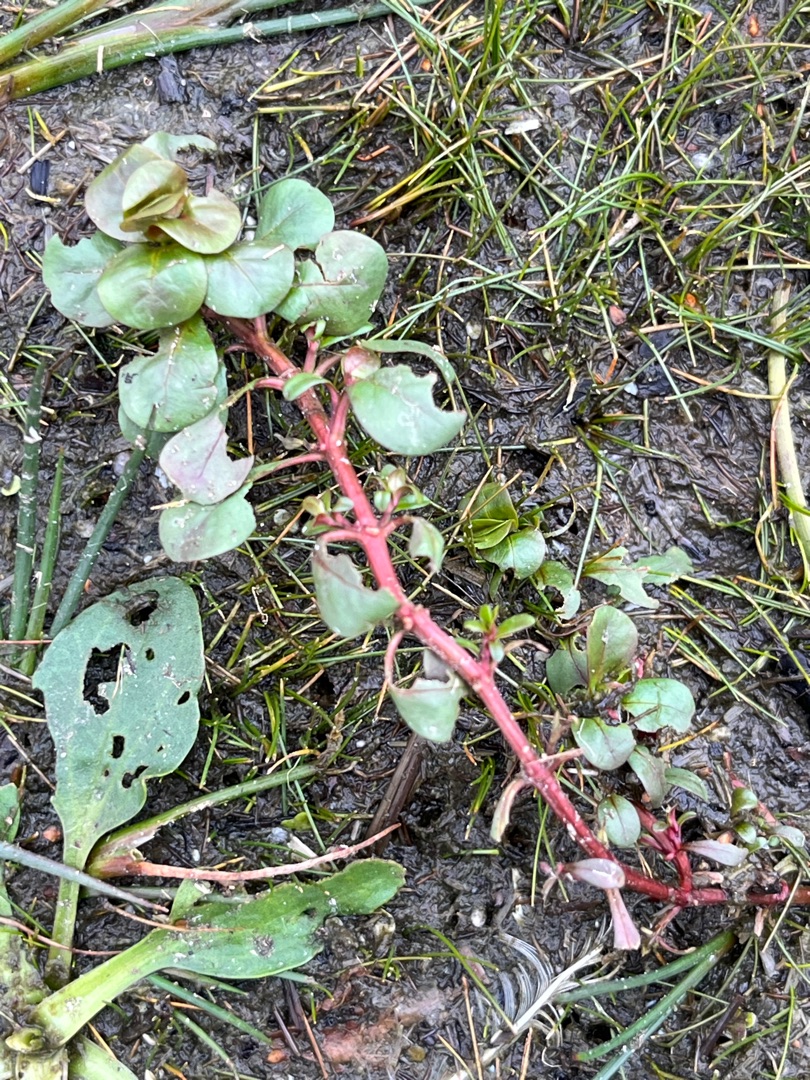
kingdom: Plantae
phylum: Tracheophyta
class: Magnoliopsida
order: Myrtales
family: Lythraceae
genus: Lythrum
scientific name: Lythrum portula
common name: Vandportulak
